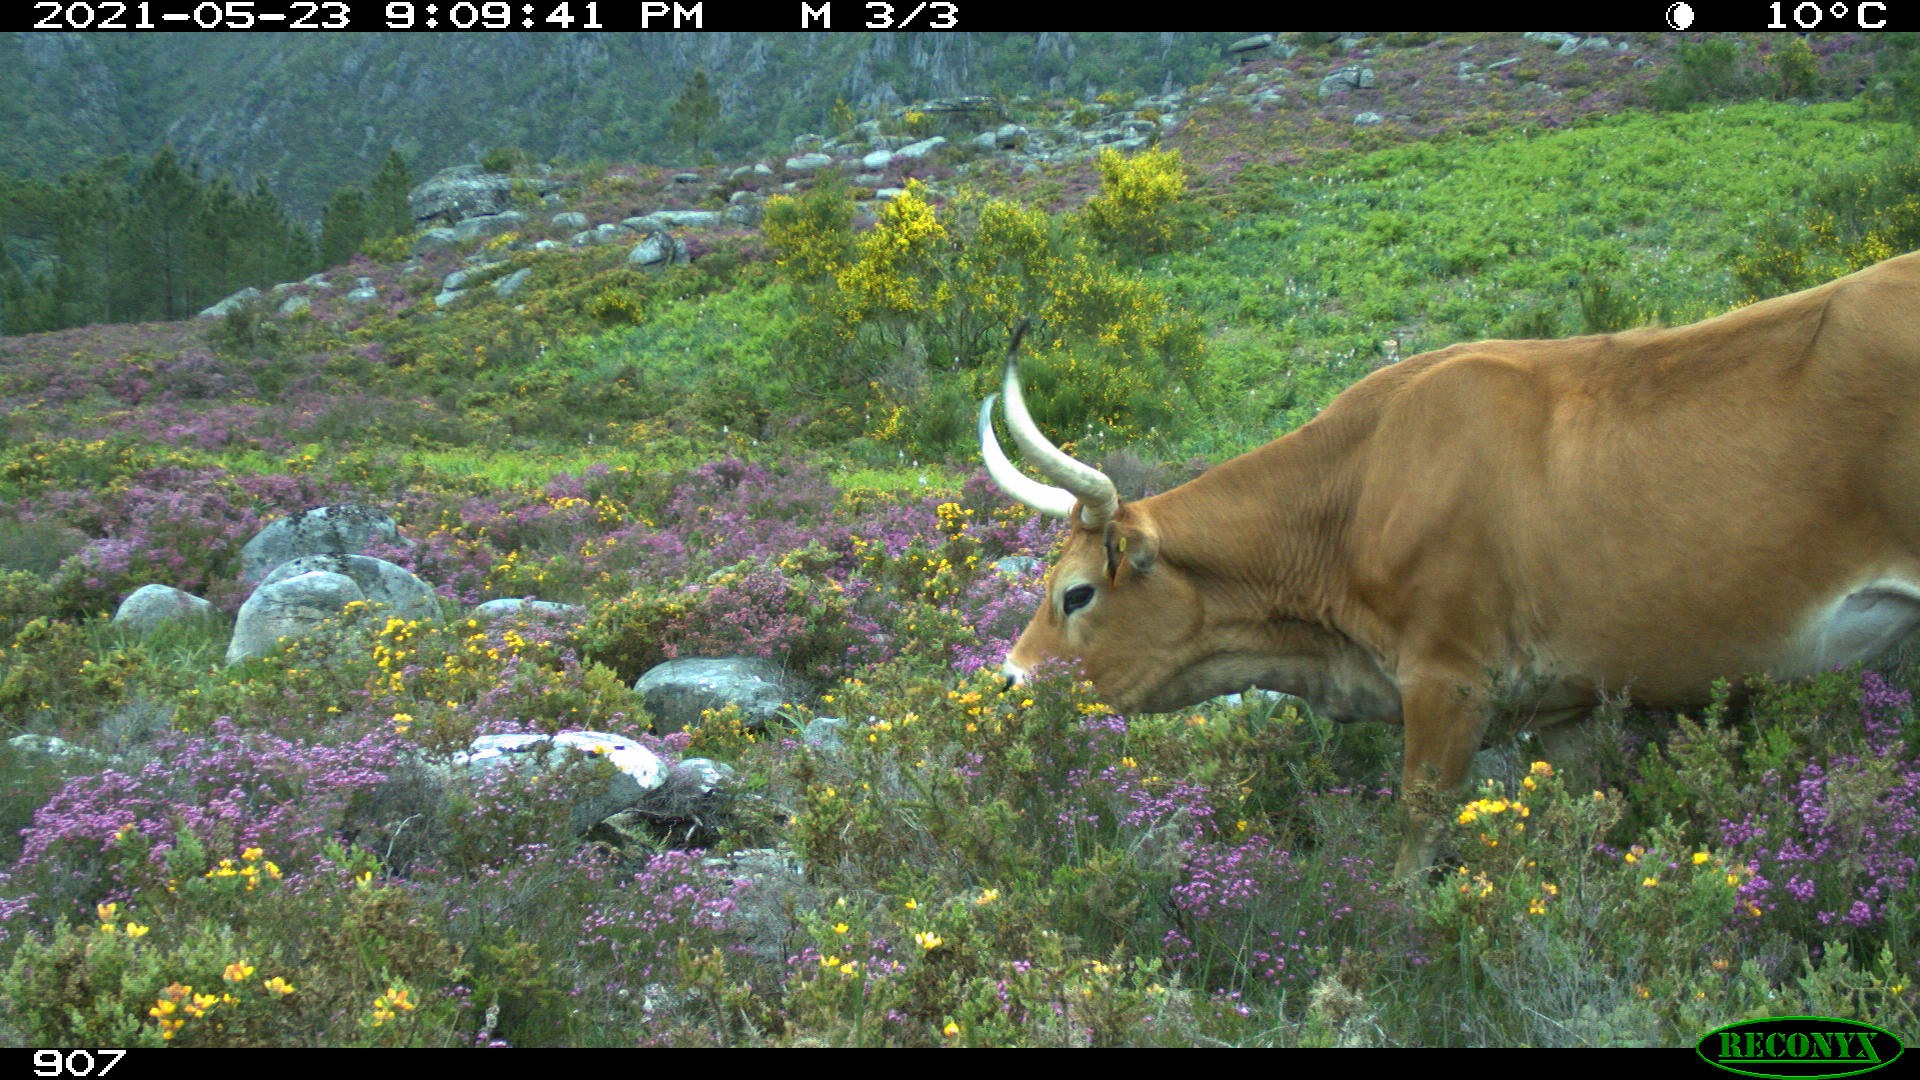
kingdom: Animalia
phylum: Chordata
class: Mammalia
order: Artiodactyla
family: Bovidae
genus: Bos
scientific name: Bos taurus
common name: Domesticated cattle
